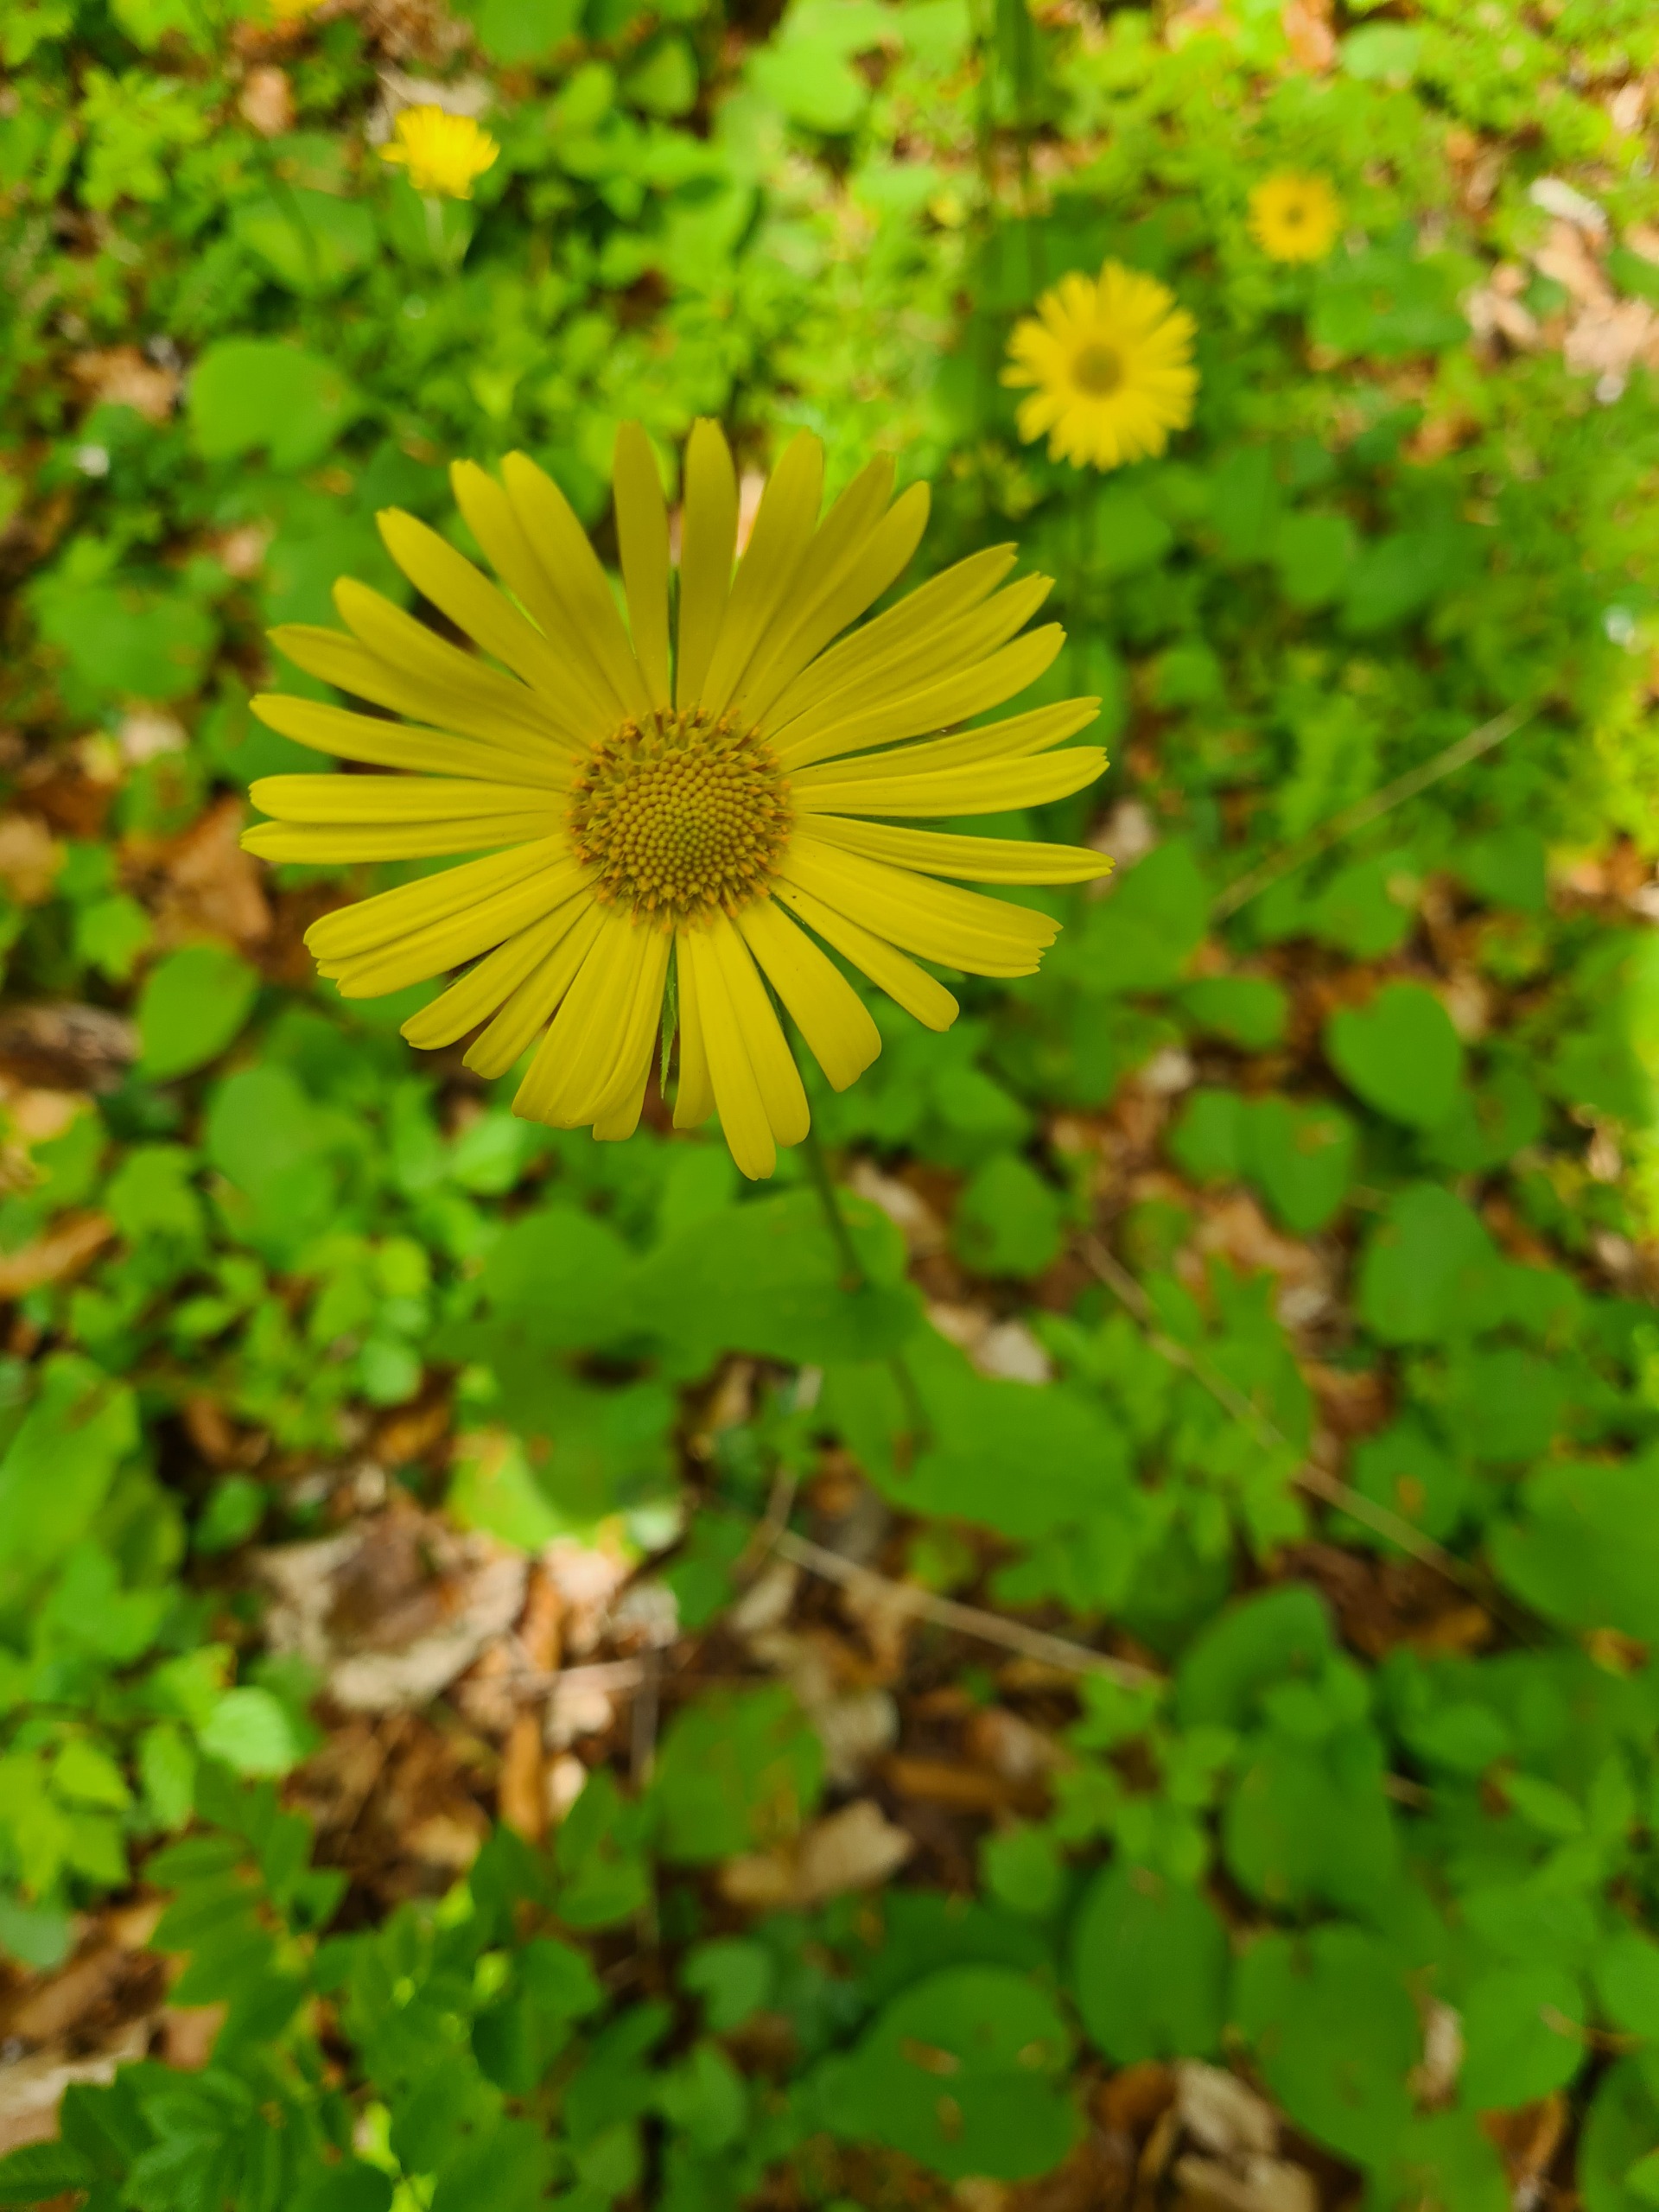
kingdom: Plantae
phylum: Tracheophyta
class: Magnoliopsida
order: Asterales
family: Asteraceae
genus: Doronicum
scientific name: Doronicum pardalianches
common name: Hjertebladet gemserod
